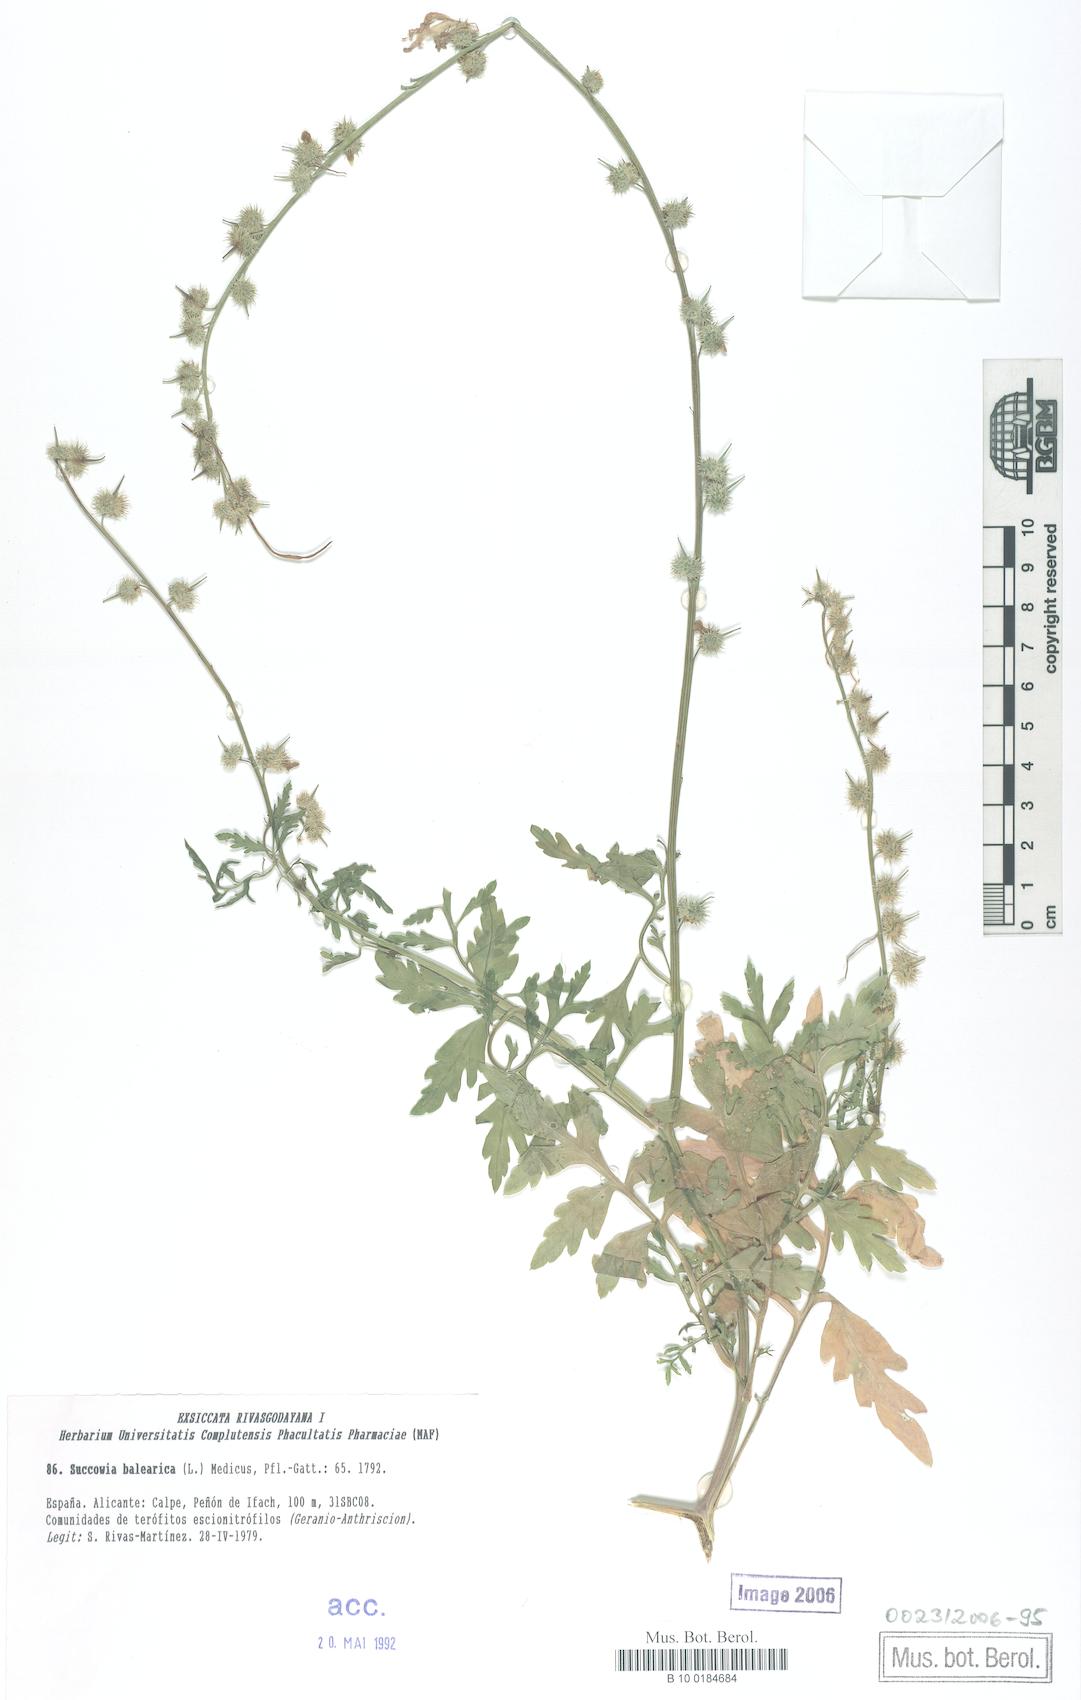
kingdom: Plantae
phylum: Tracheophyta
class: Magnoliopsida
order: Brassicales
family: Brassicaceae
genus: Succowia
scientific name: Succowia balearica
